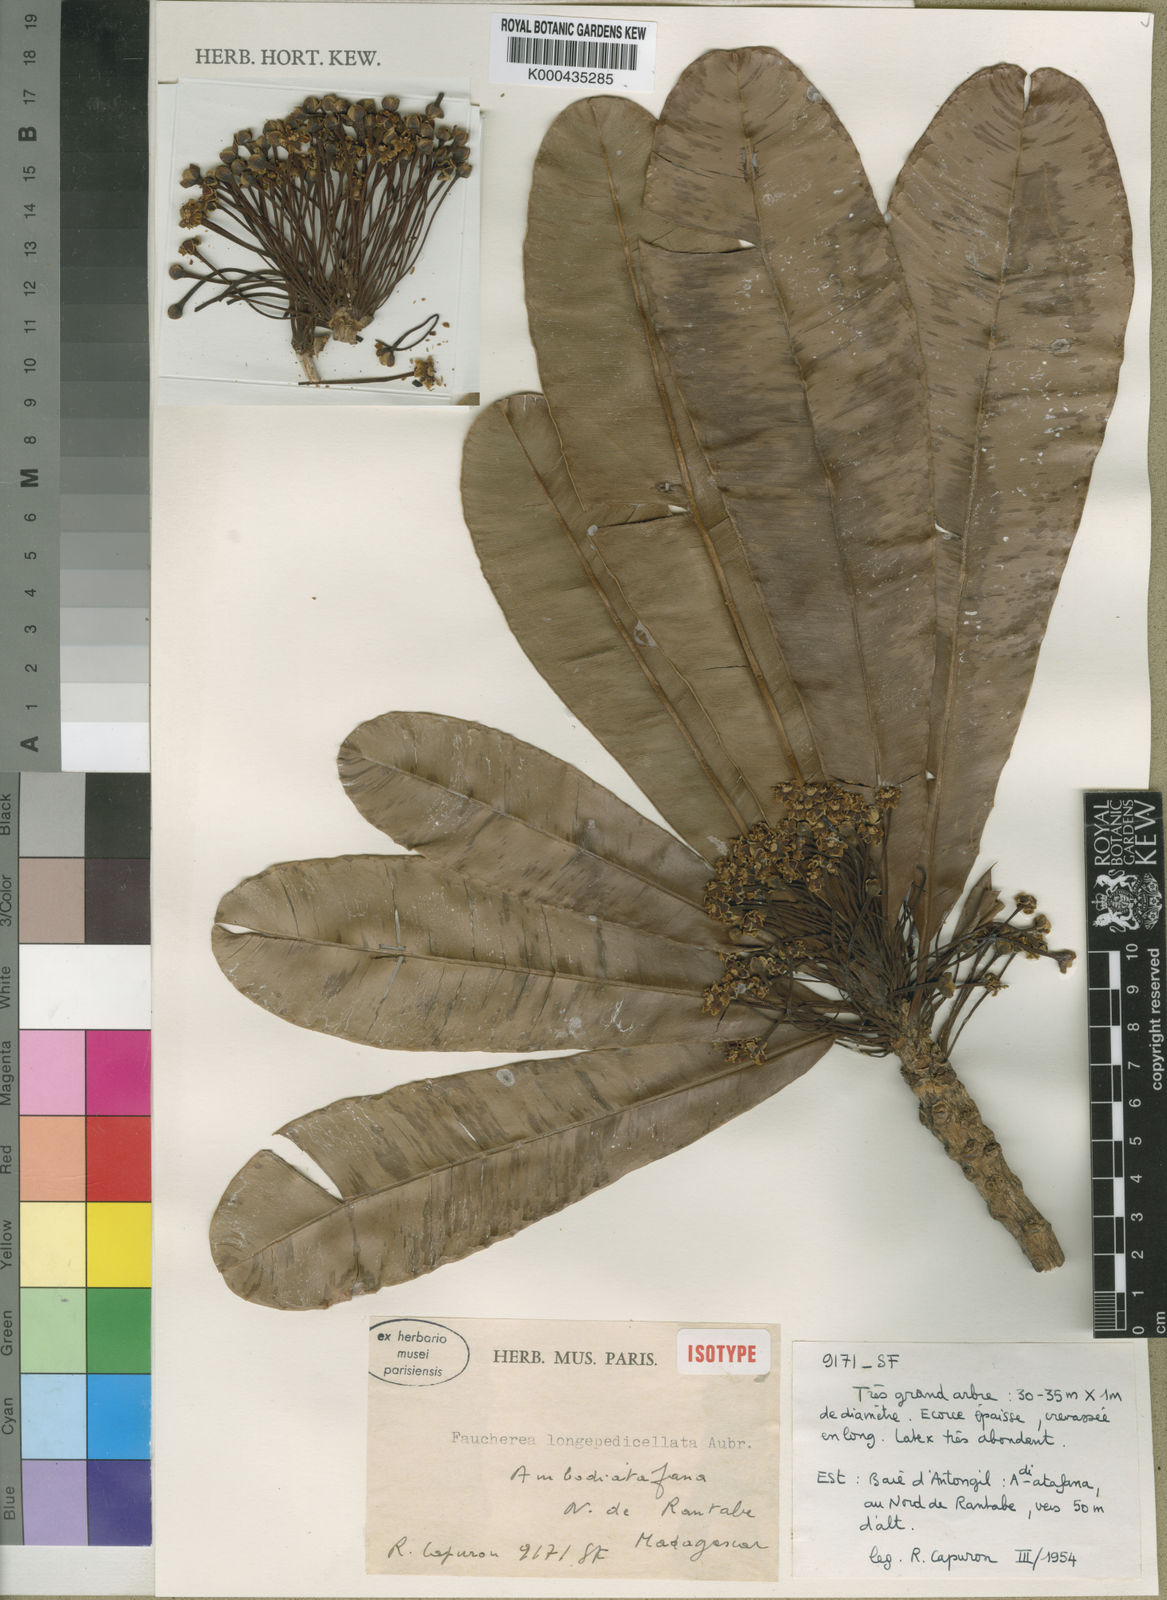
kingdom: Plantae
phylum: Tracheophyta
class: Magnoliopsida
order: Ericales
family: Sapotaceae
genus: Faucherea
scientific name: Faucherea longepedicellata
